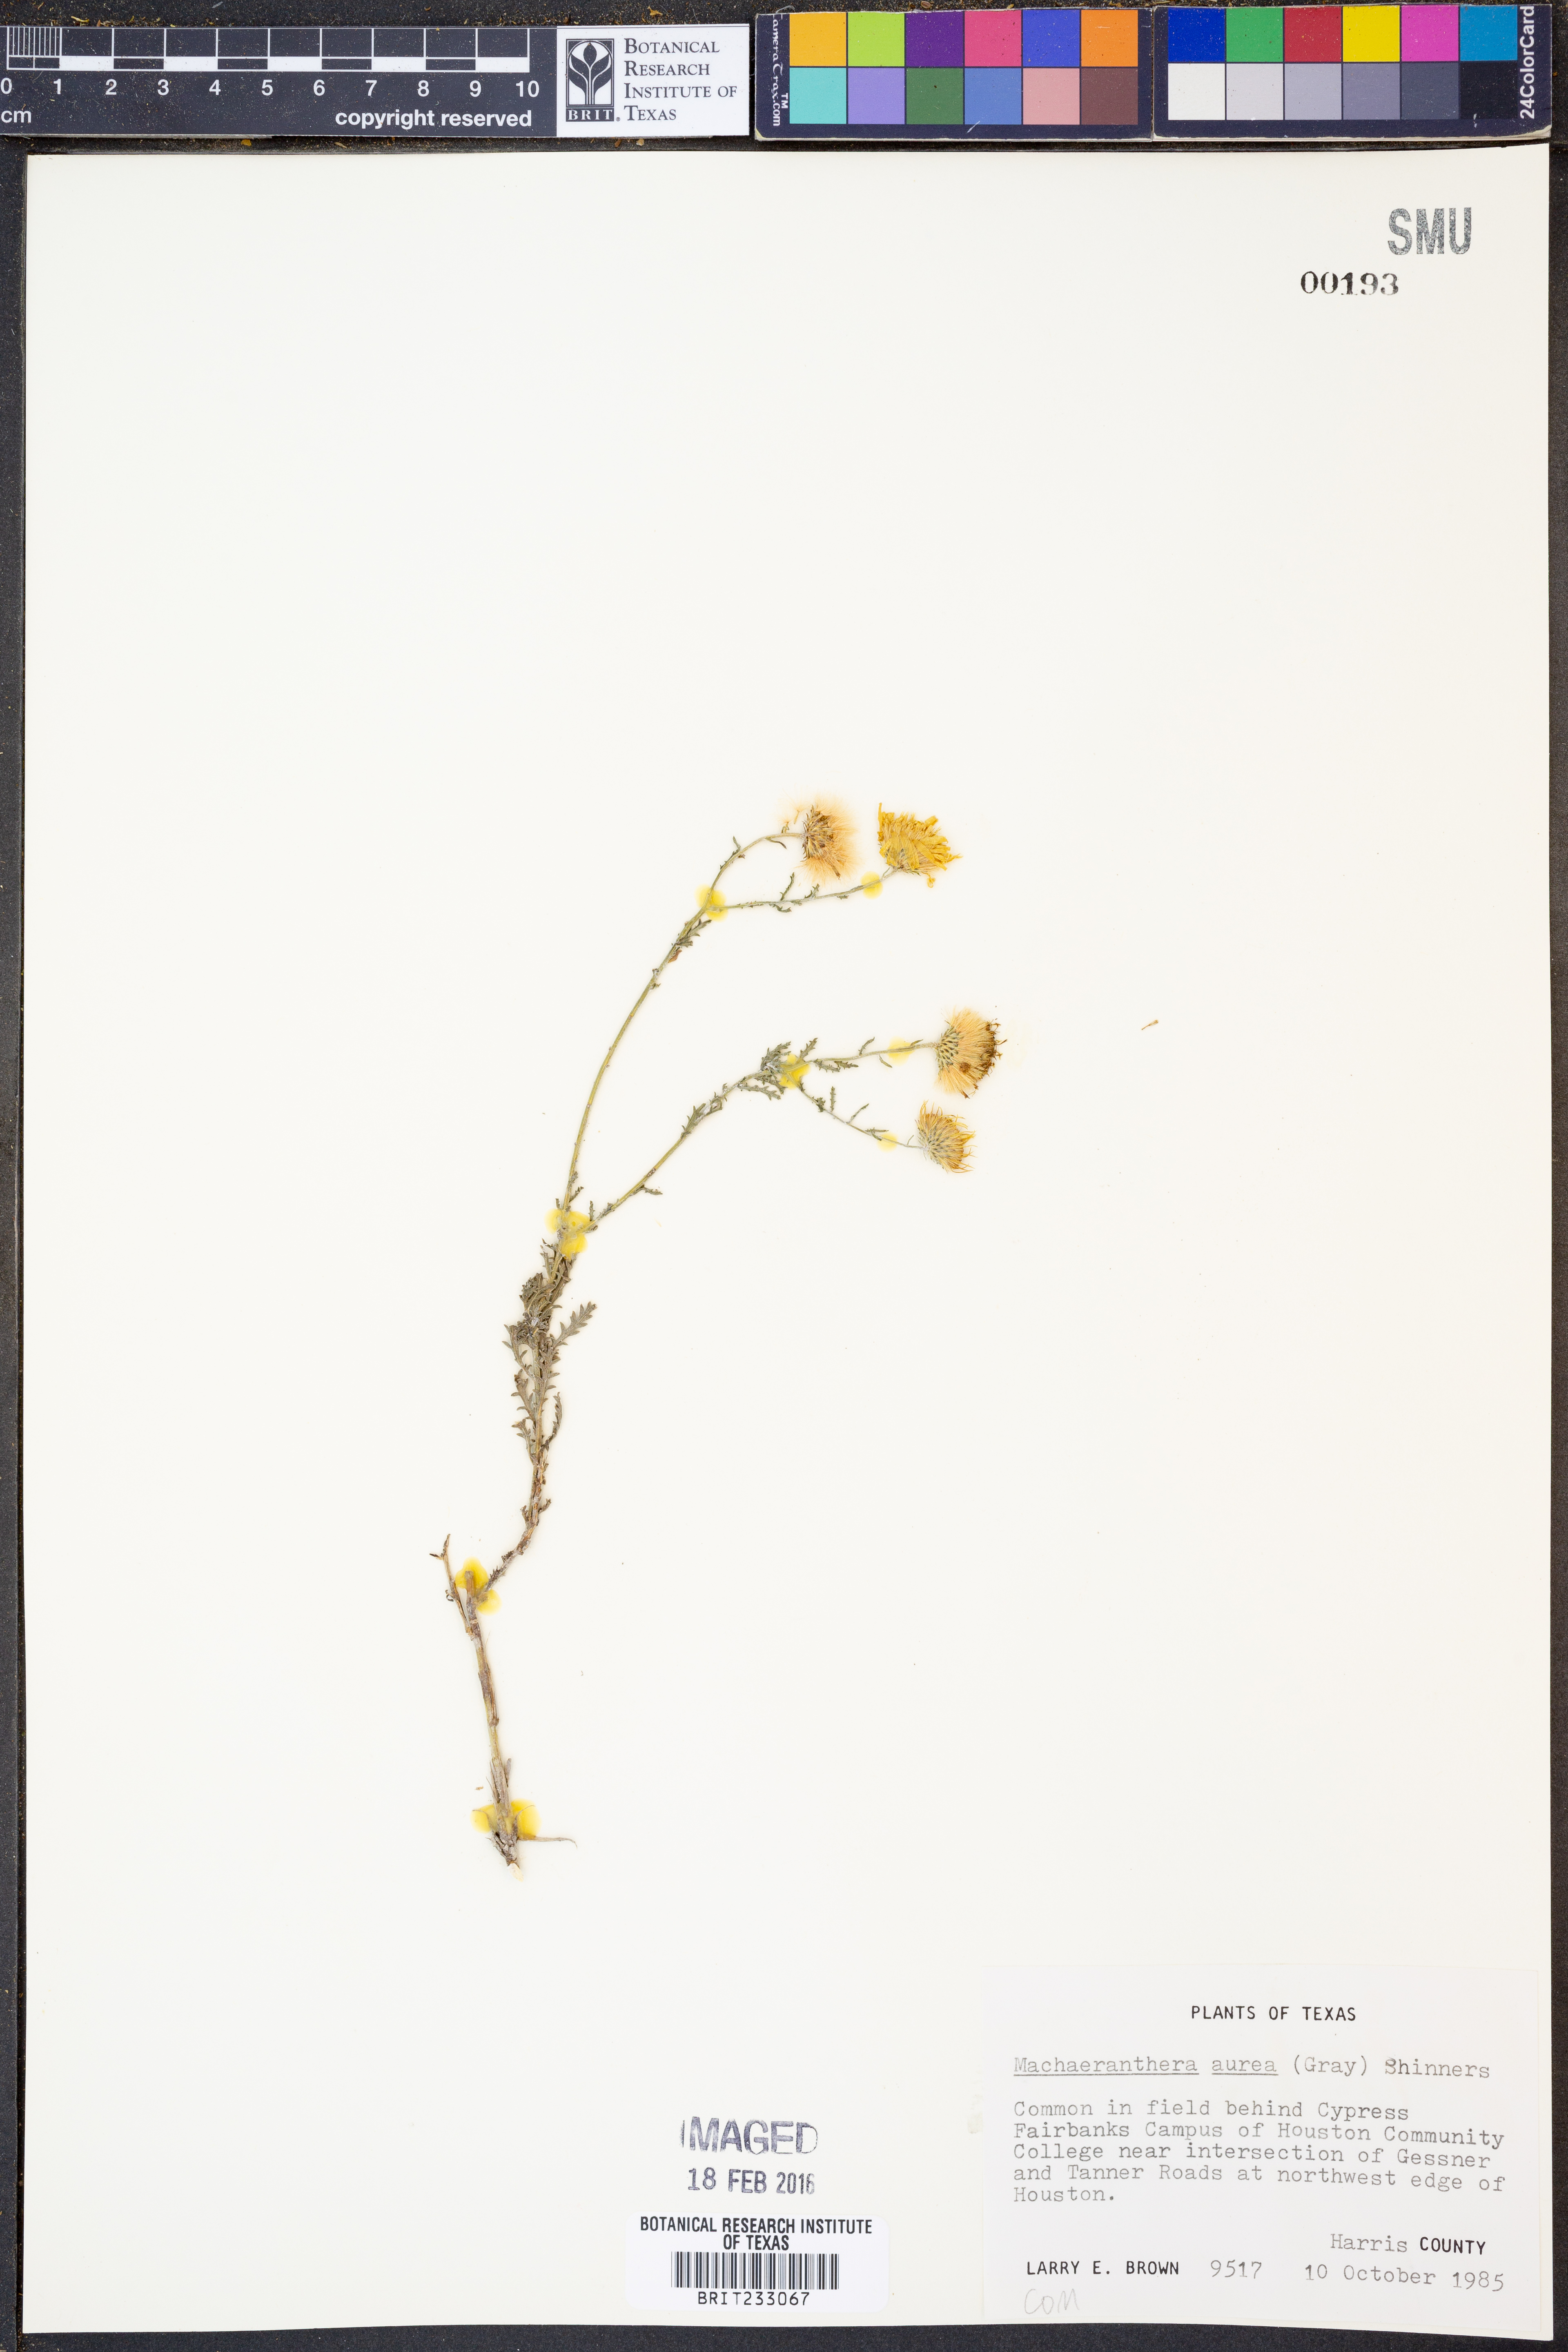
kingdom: Plantae
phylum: Tracheophyta
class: Magnoliopsida
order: Asterales
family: Asteraceae
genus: Rayjacksonia
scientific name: Rayjacksonia aurea
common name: Houston camphor daisy
